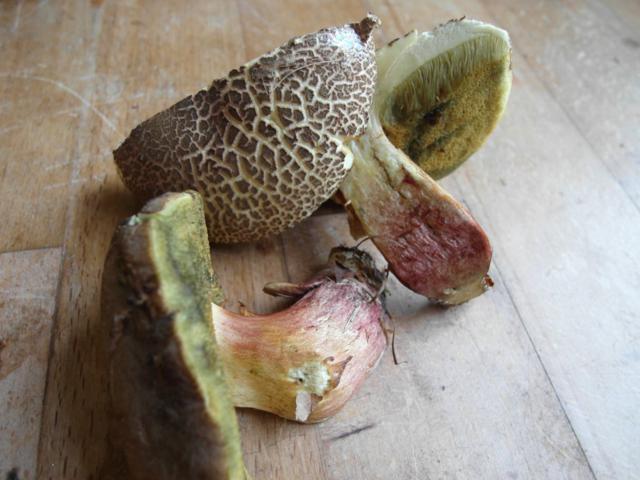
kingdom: Fungi
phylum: Basidiomycota
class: Agaricomycetes
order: Boletales
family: Boletaceae
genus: Xerocomellus
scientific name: Xerocomellus chrysenteron
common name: rødsprukken rørhat
